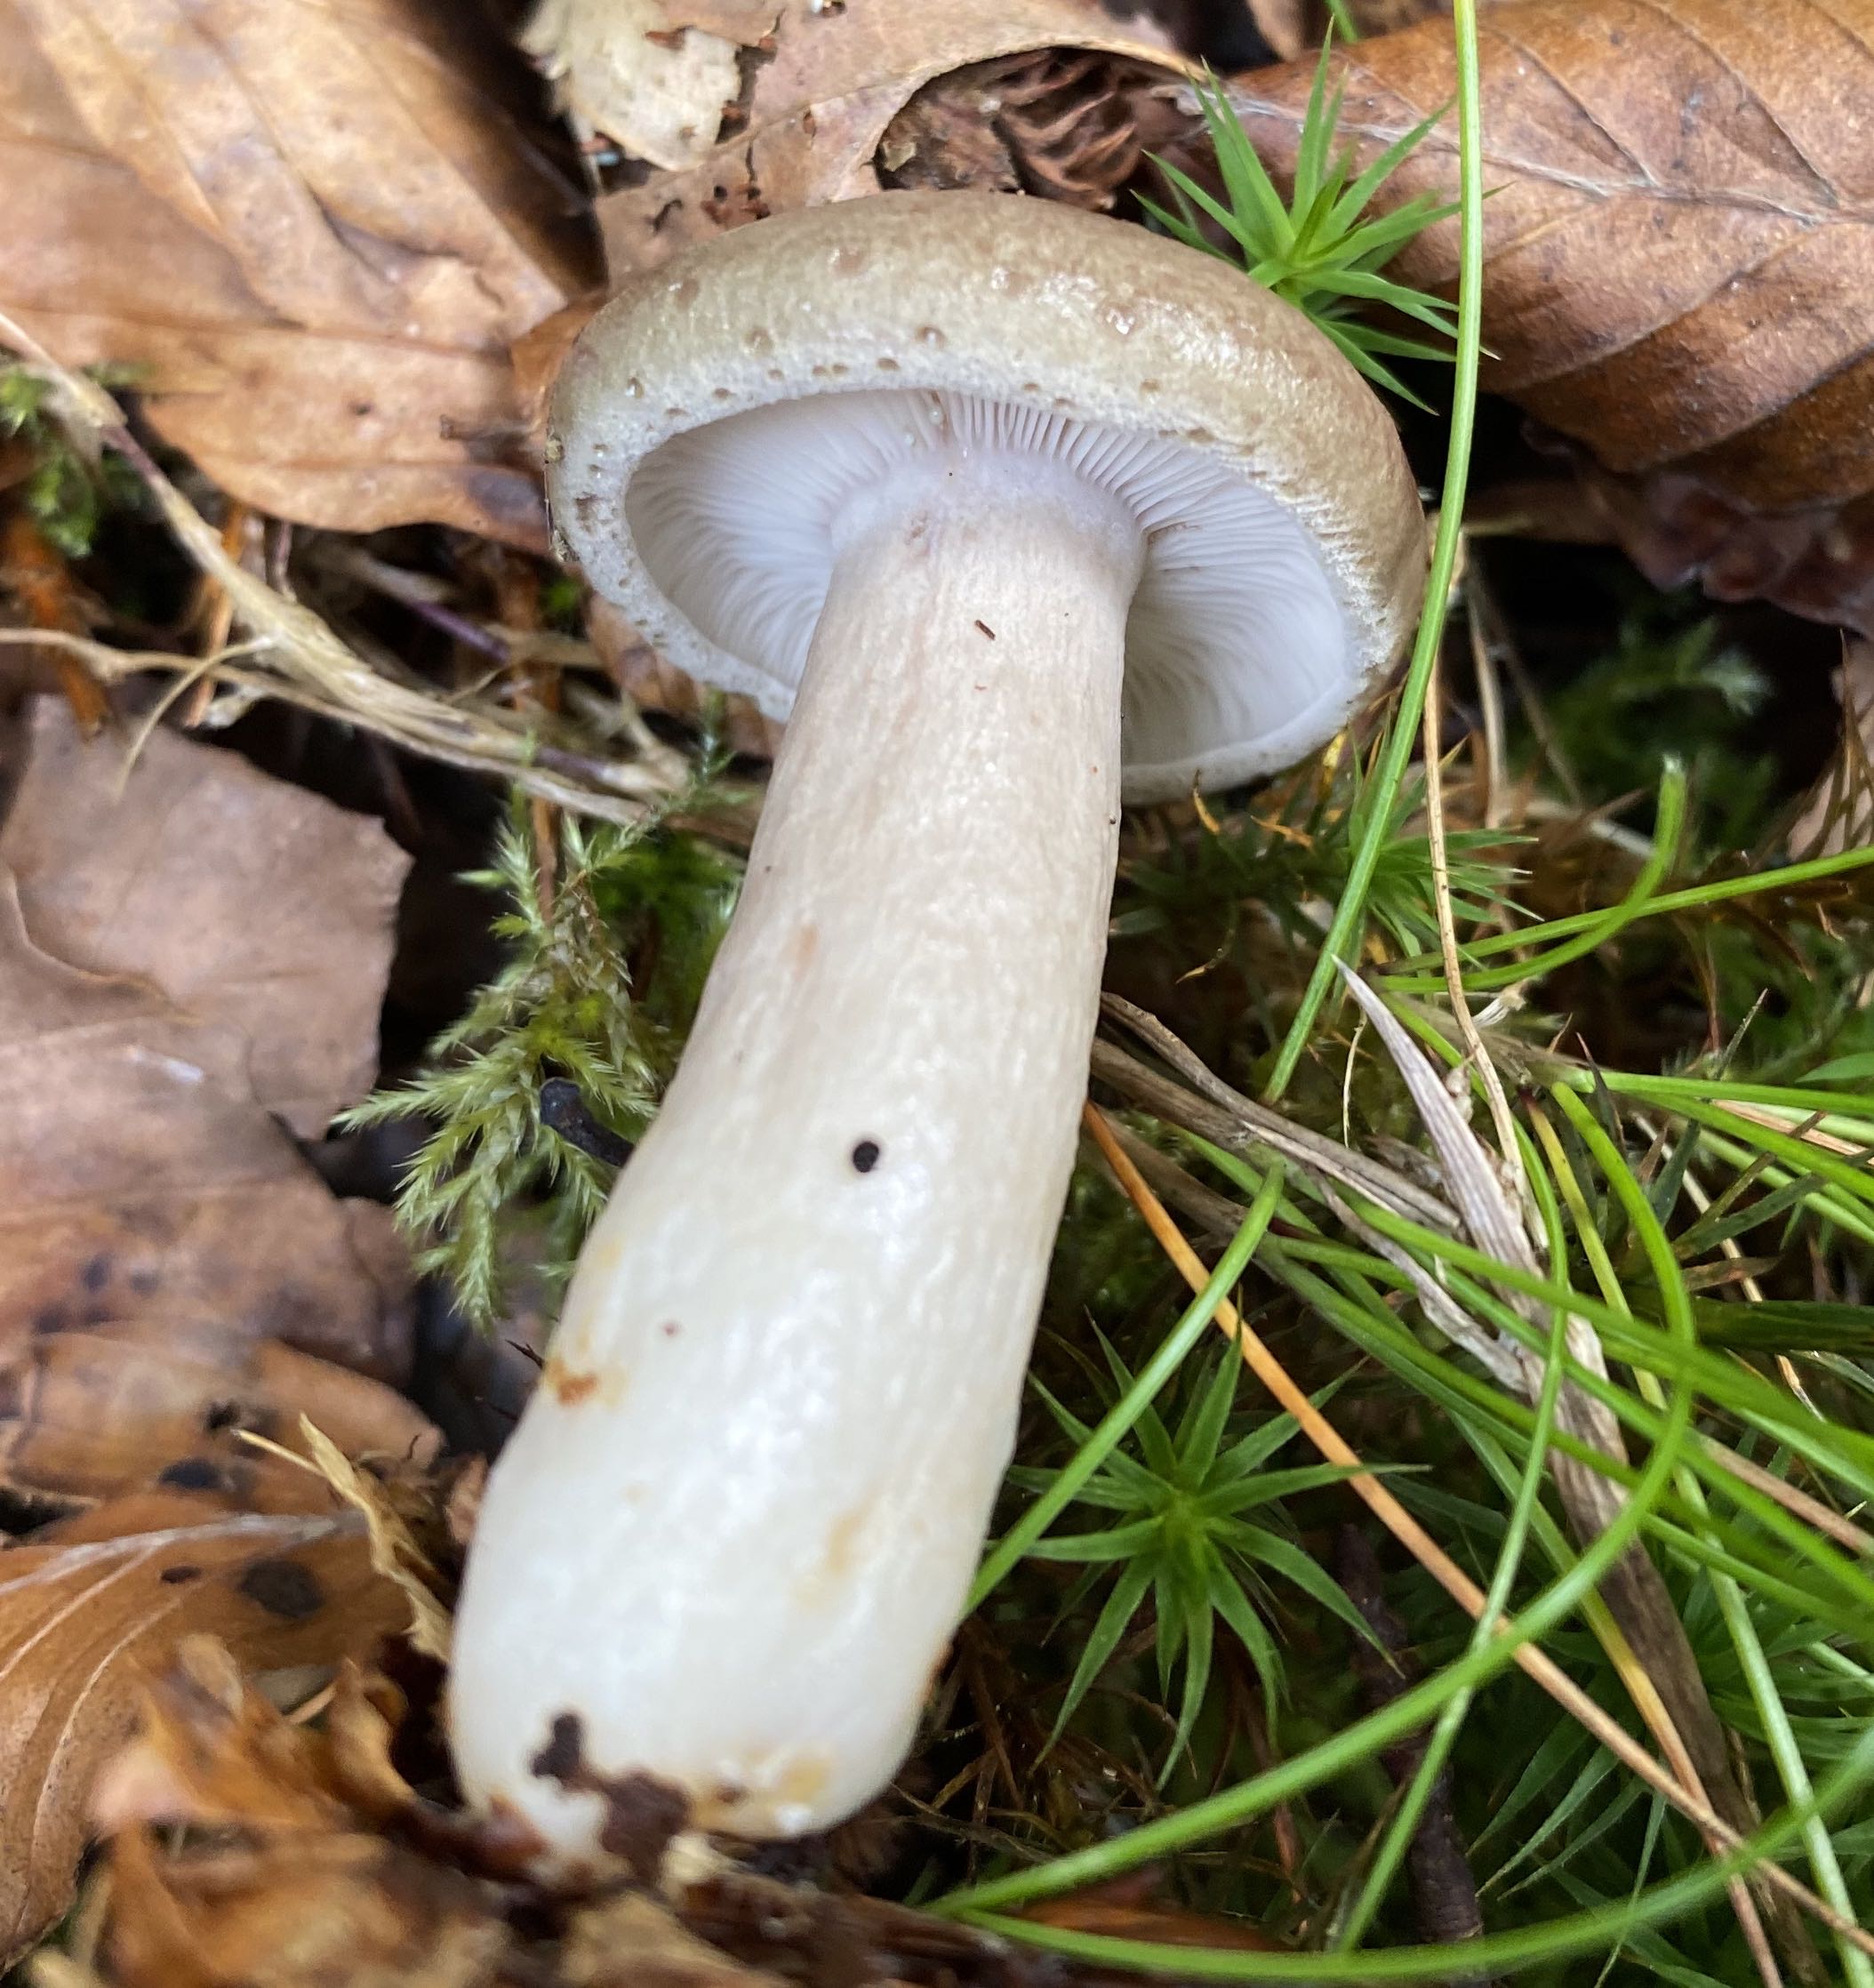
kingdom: Fungi
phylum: Basidiomycota
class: Agaricomycetes
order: Russulales
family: Russulaceae
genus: Lactarius
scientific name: Lactarius blennius
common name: dråbeplettet mælkehat
